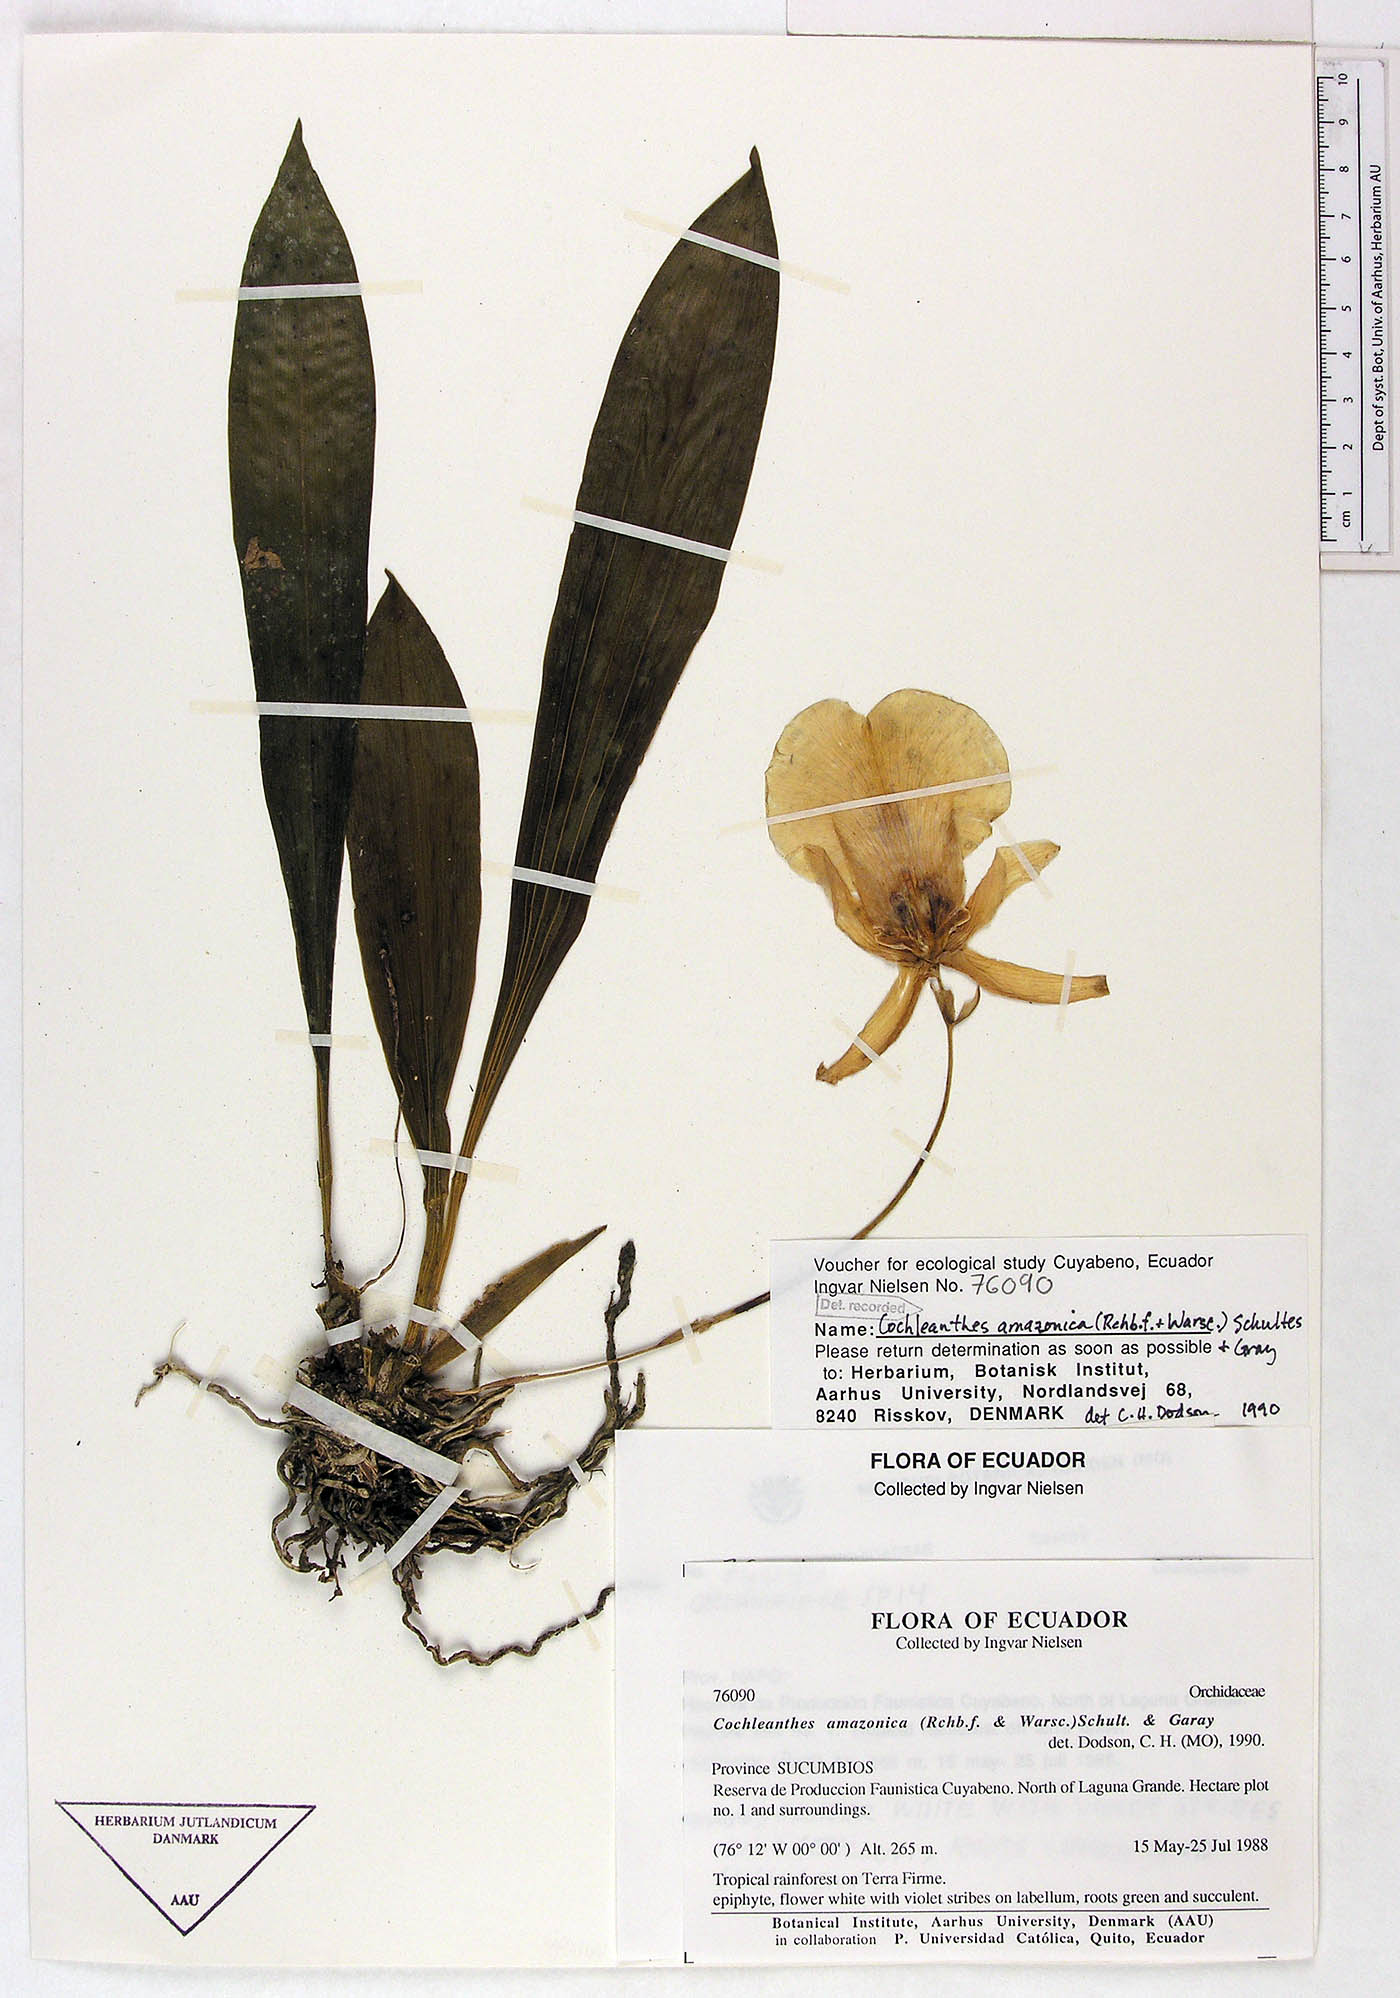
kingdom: Plantae
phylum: Tracheophyta
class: Liliopsida
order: Asparagales
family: Orchidaceae
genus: Warczewiczella
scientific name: Warczewiczella amazonica
